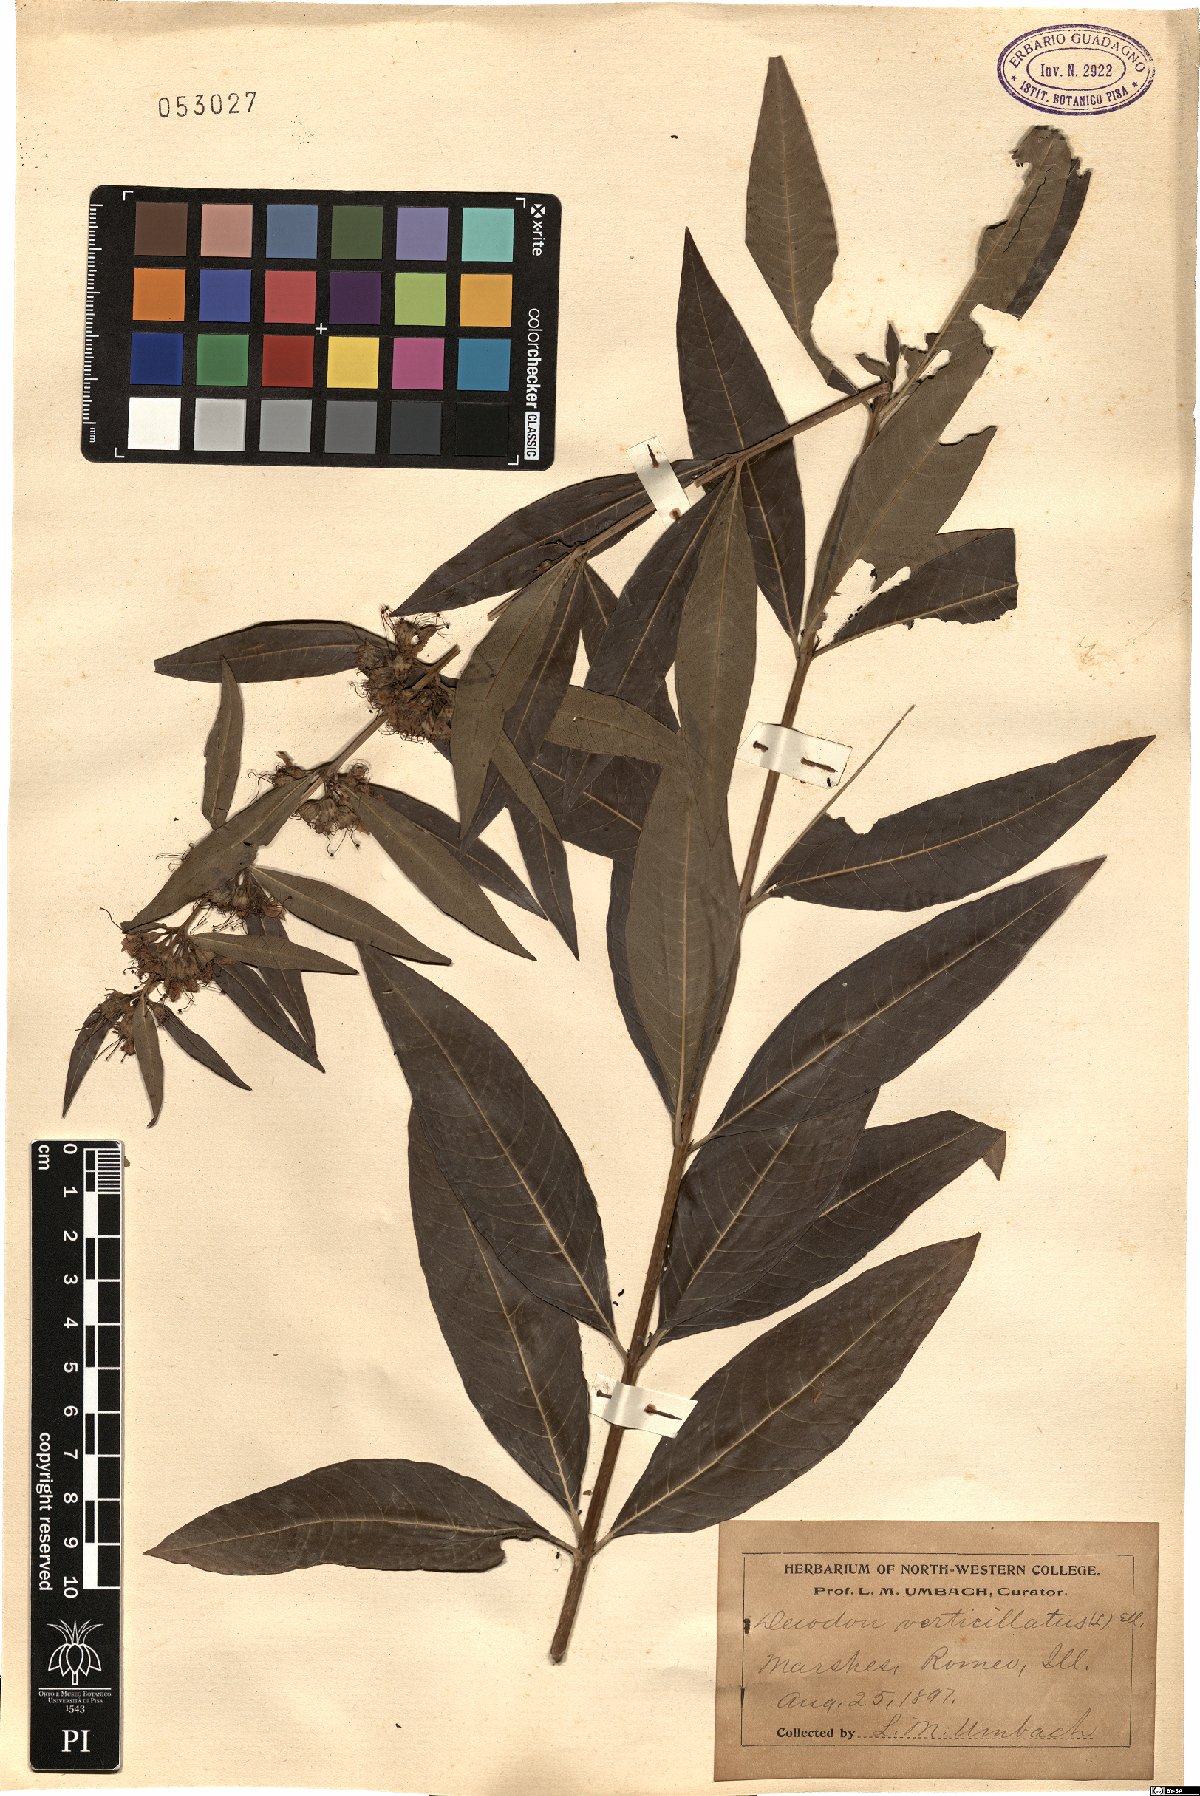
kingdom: Plantae
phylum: Tracheophyta
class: Magnoliopsida
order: Myrtales
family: Lythraceae
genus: Decodon
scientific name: Decodon verticillatus
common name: Hairy swamp loosestrife
